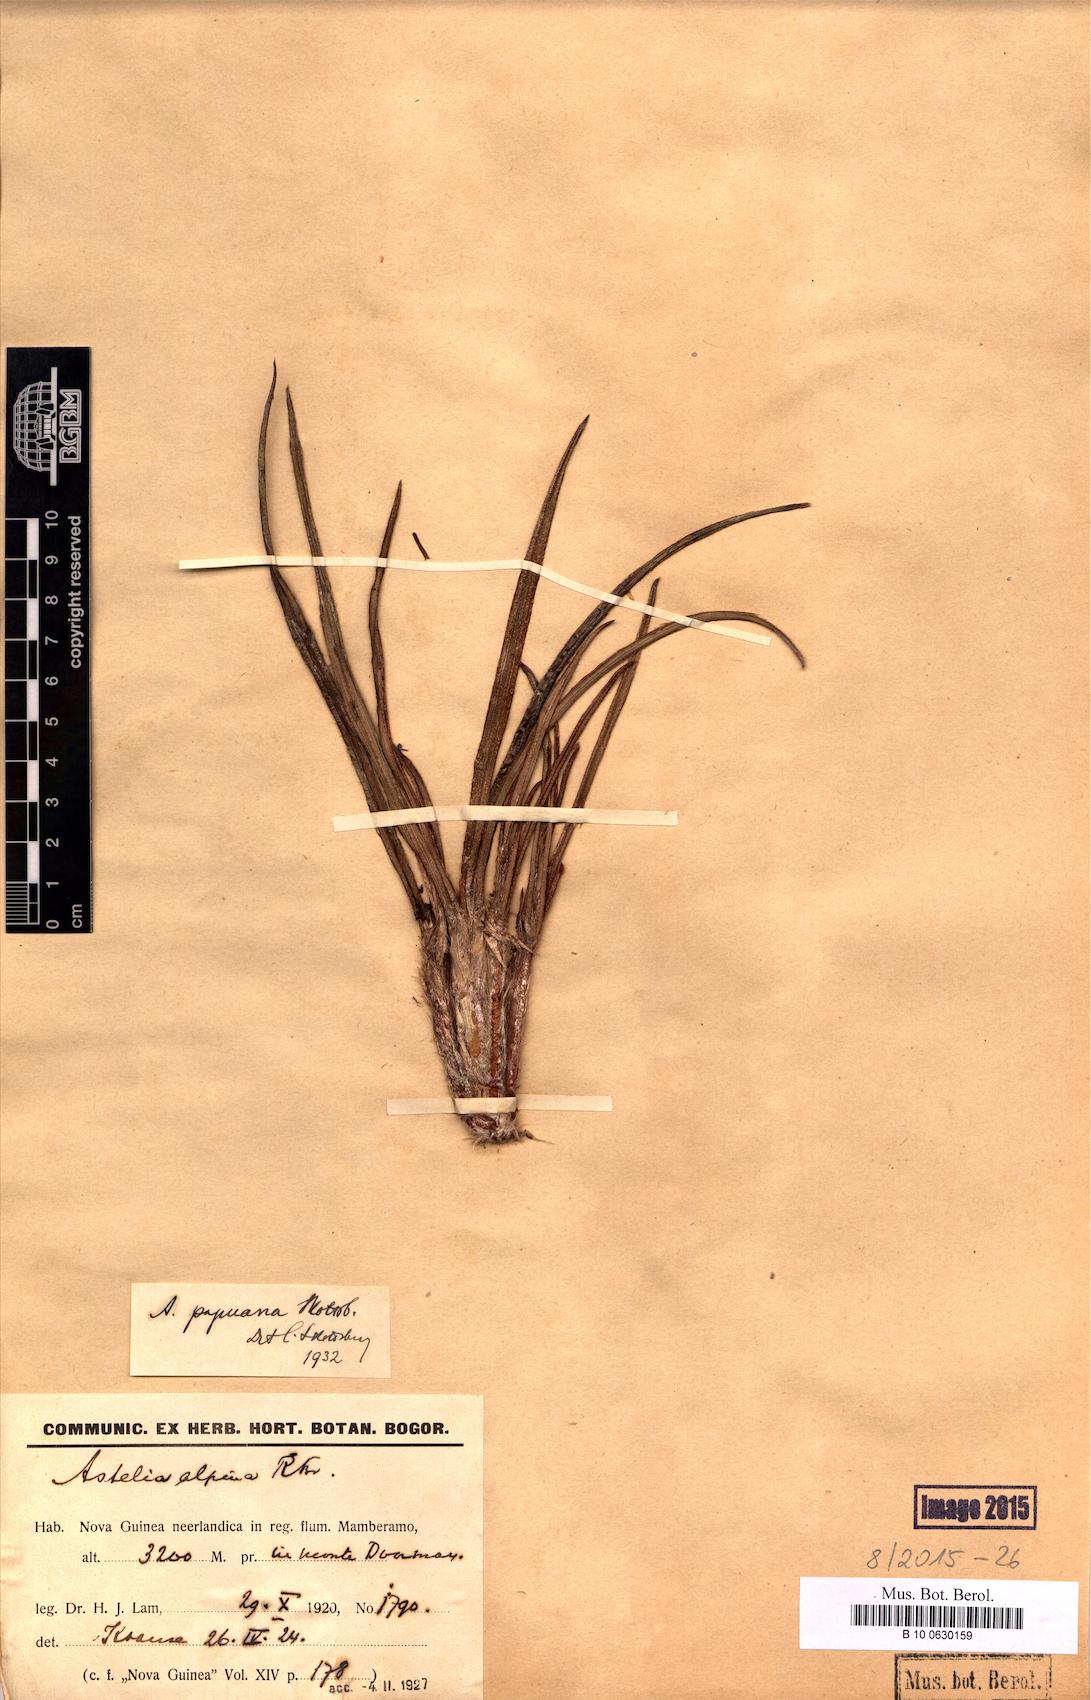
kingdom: Plantae
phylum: Tracheophyta
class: Liliopsida
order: Asparagales
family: Asteliaceae
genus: Astelia
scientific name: Astelia papuana
